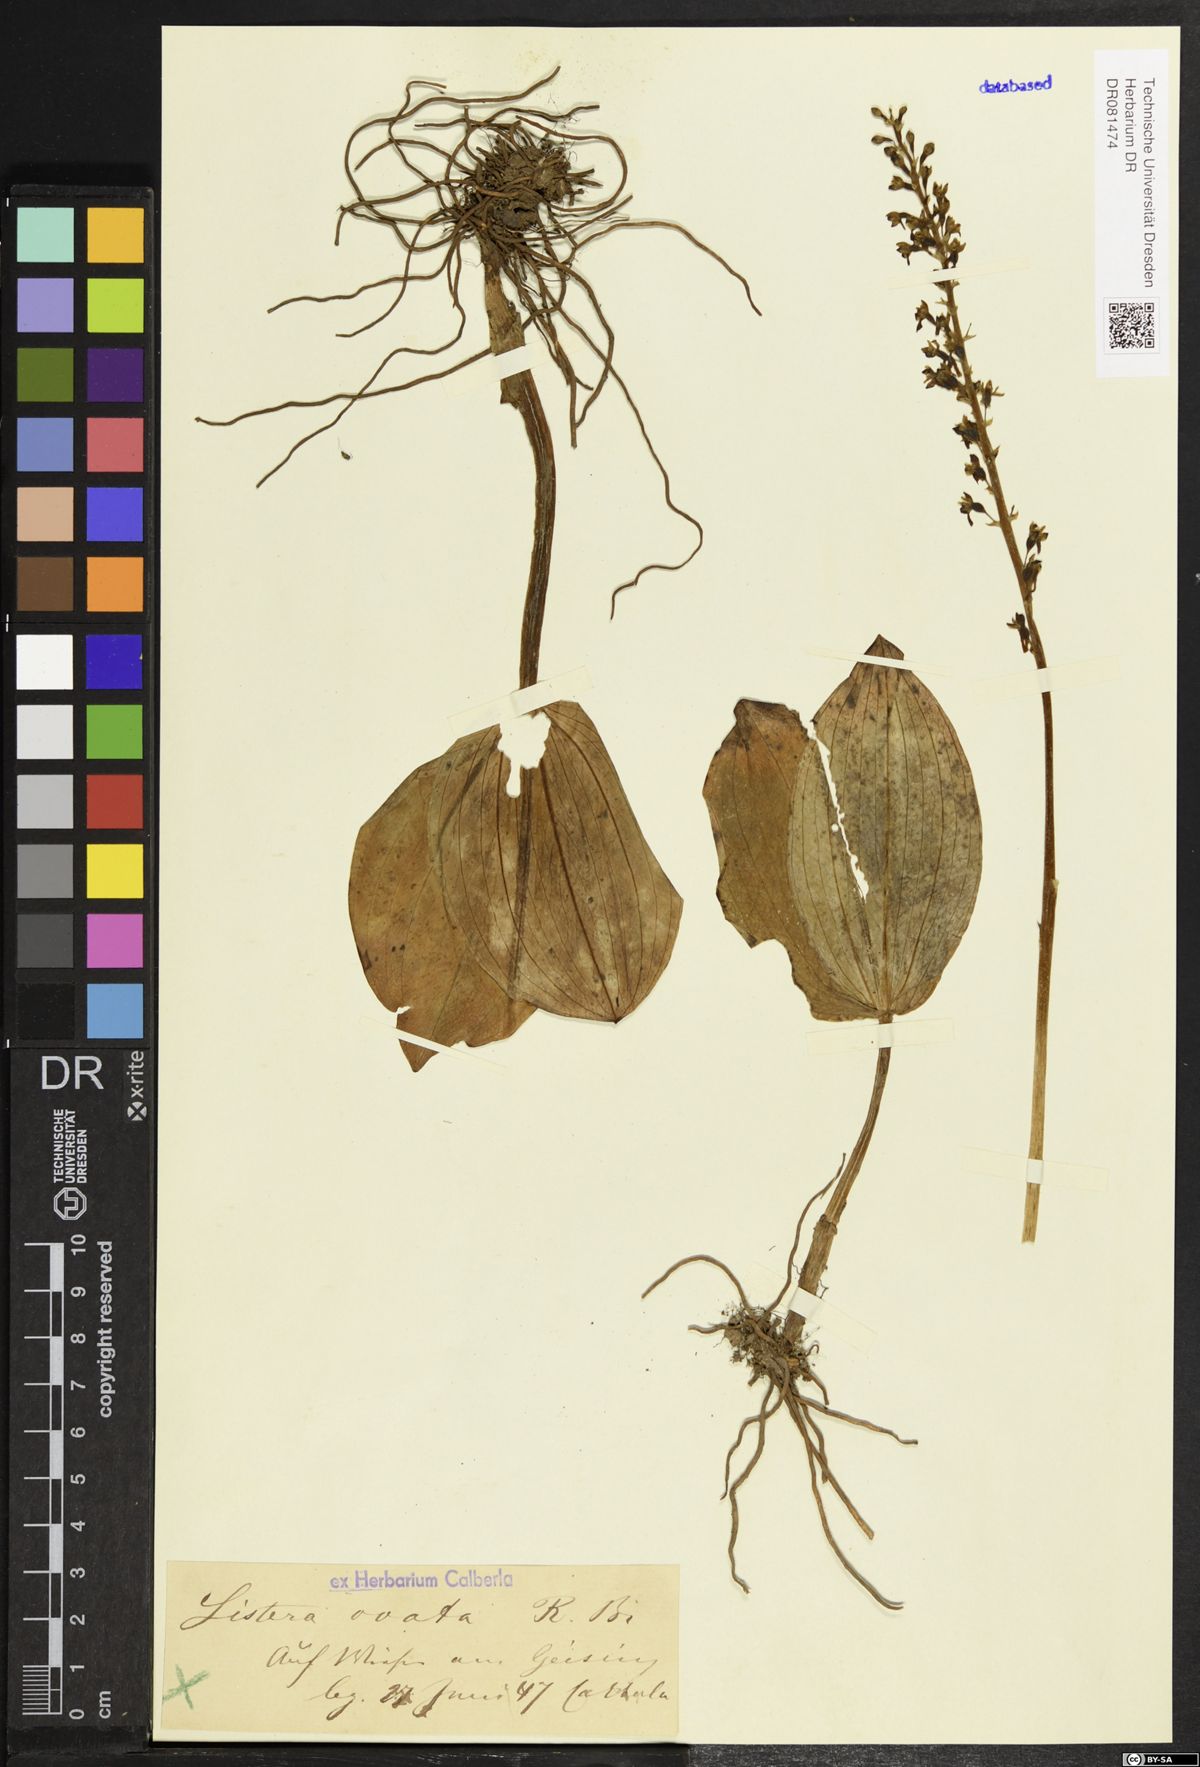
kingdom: Plantae
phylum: Tracheophyta
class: Liliopsida
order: Asparagales
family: Orchidaceae
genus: Neottia
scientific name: Neottia ovata
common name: Common twayblade
